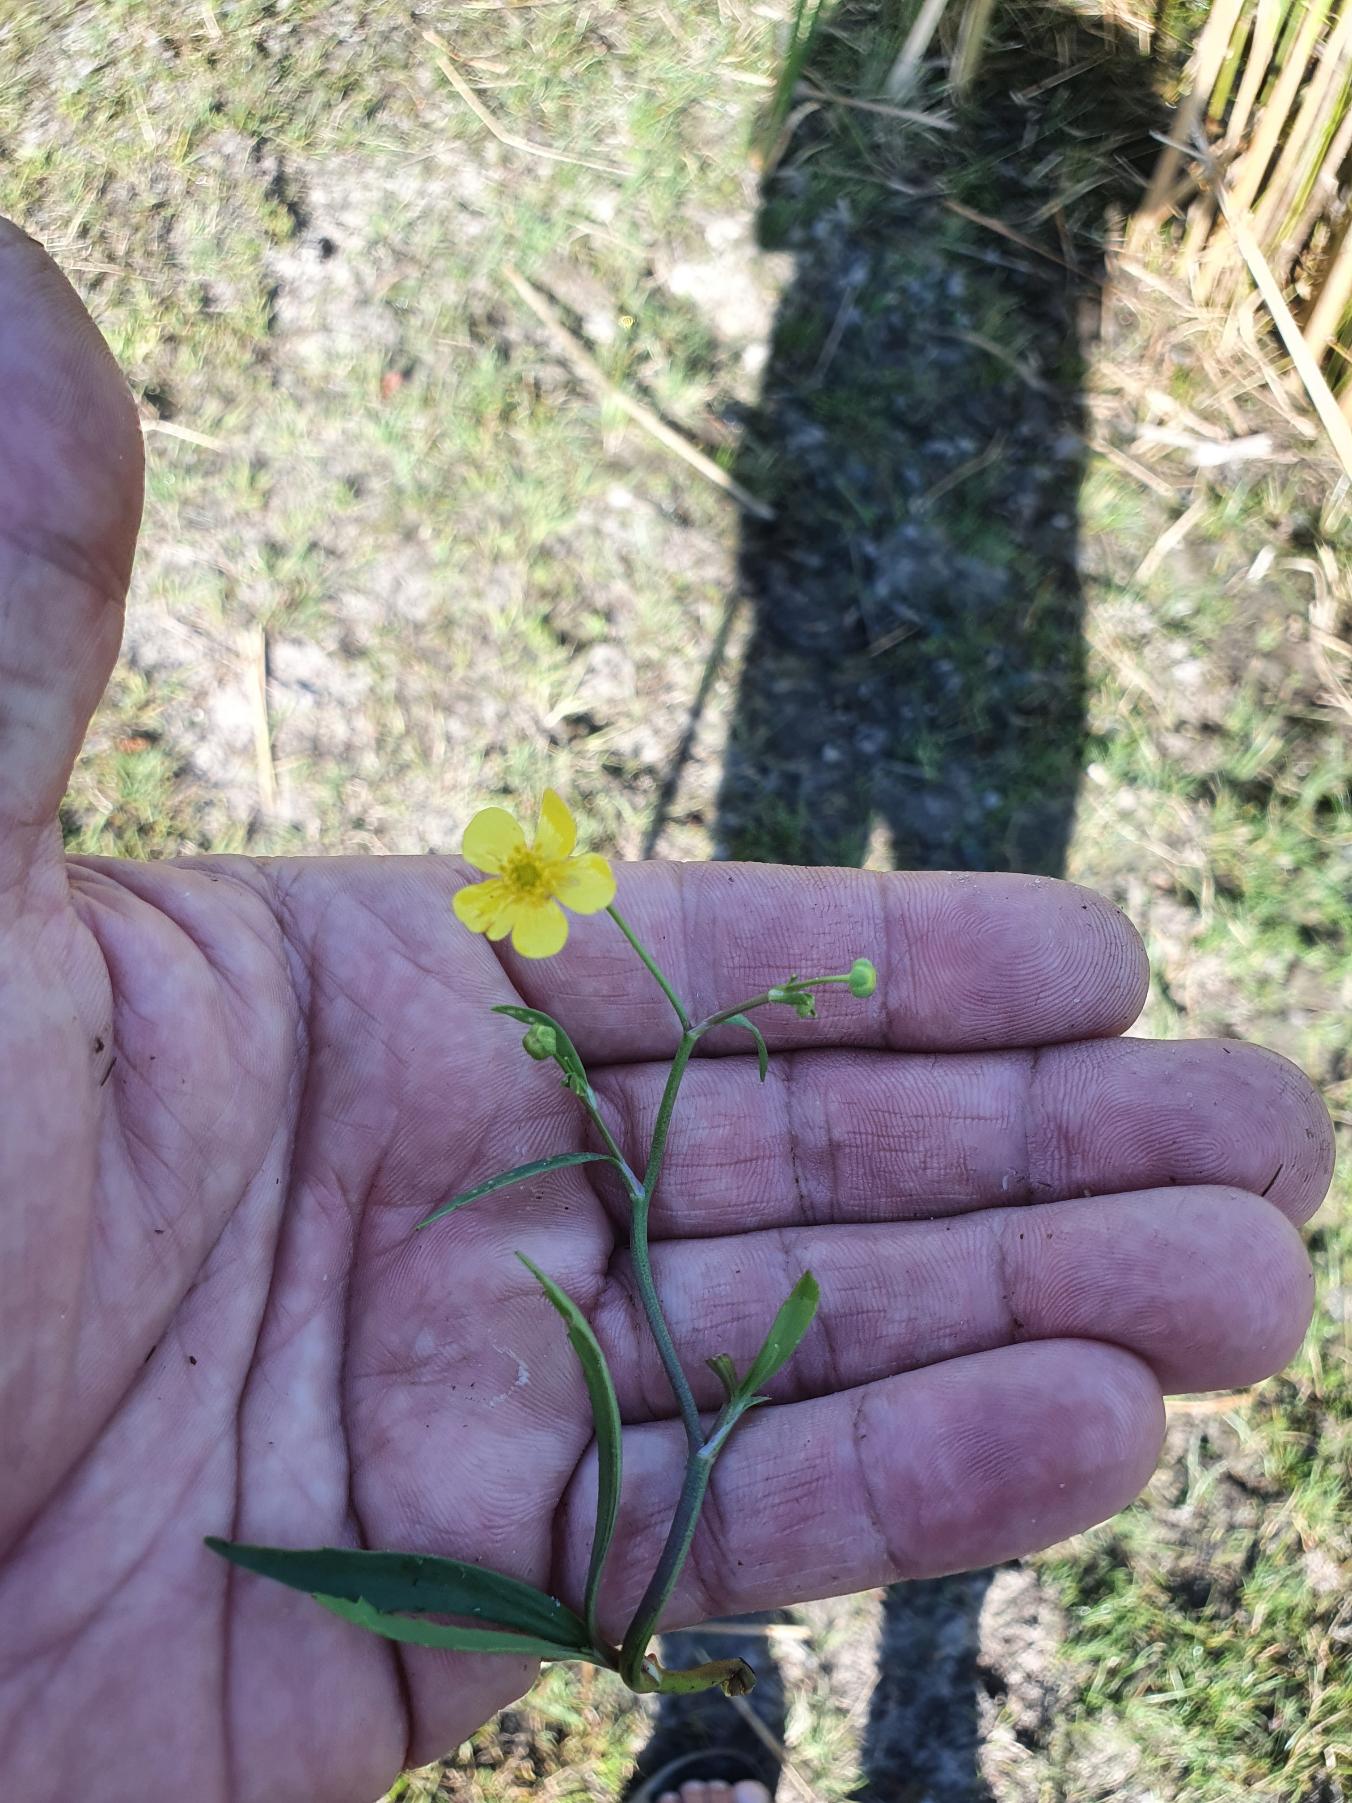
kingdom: Plantae
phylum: Tracheophyta
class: Magnoliopsida
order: Ranunculales
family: Ranunculaceae
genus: Ranunculus
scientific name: Ranunculus flammula
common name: Kær-ranunkel
